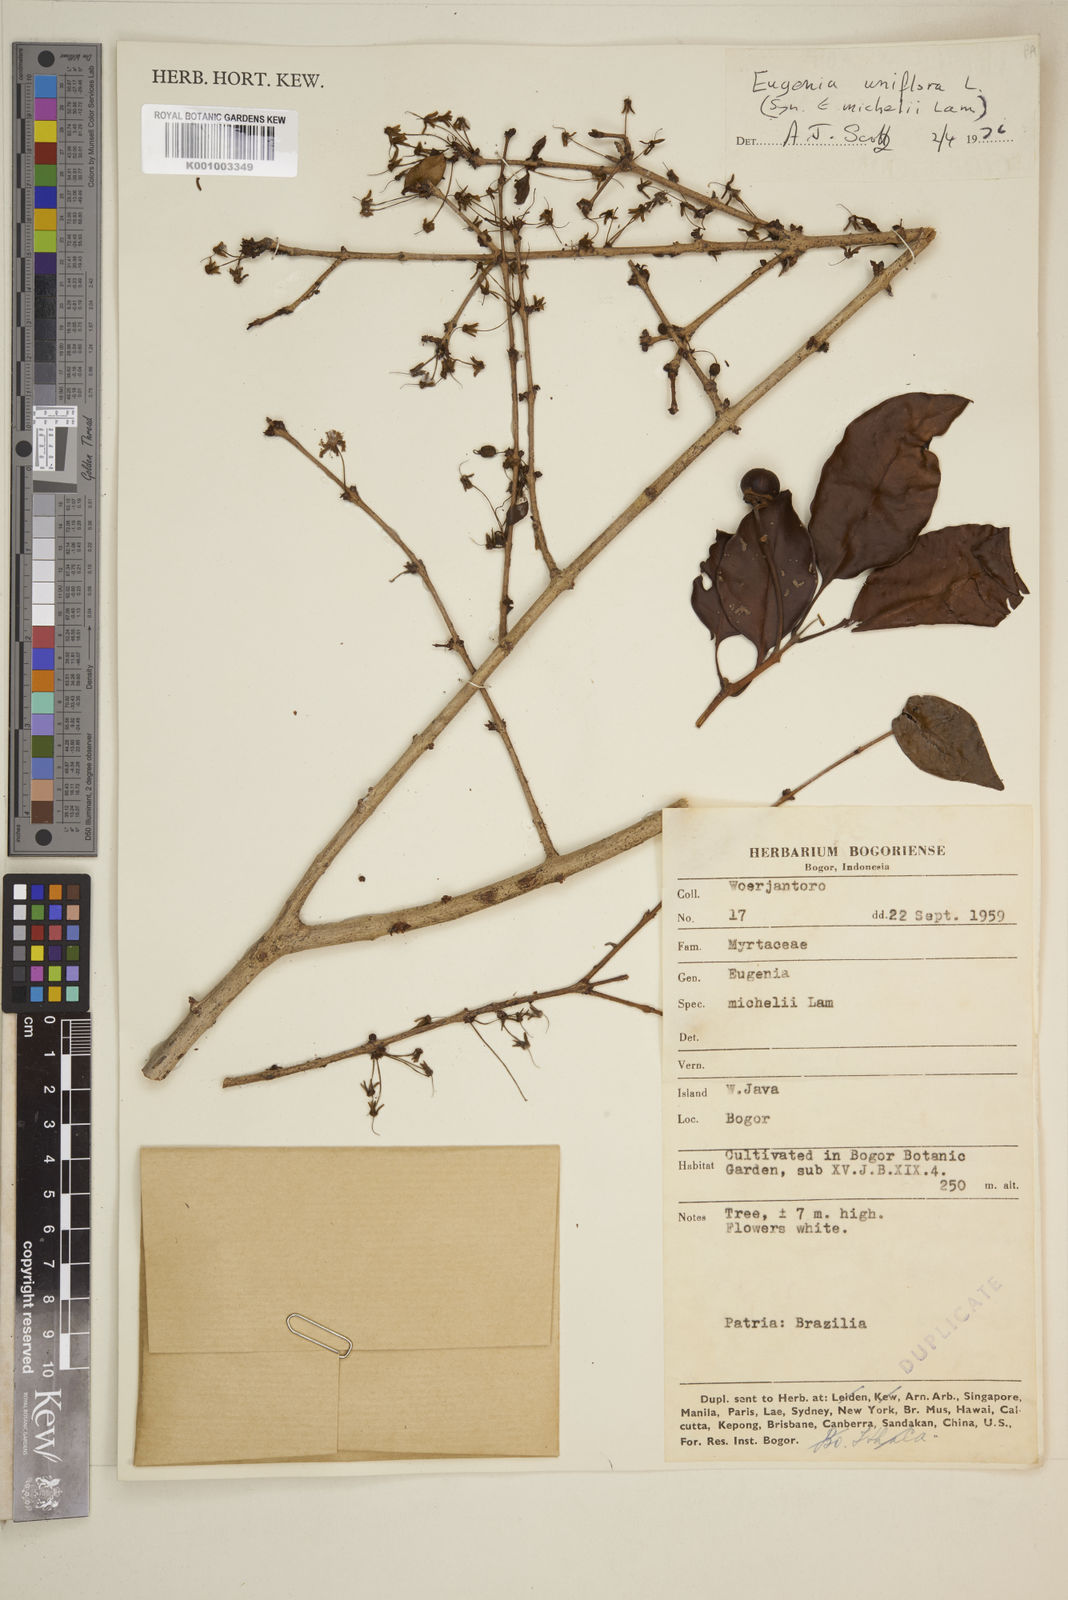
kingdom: Plantae
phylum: Tracheophyta
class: Magnoliopsida
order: Myrtales
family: Myrtaceae
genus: Eugenia
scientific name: Eugenia uniflora
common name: Surinam cherry
